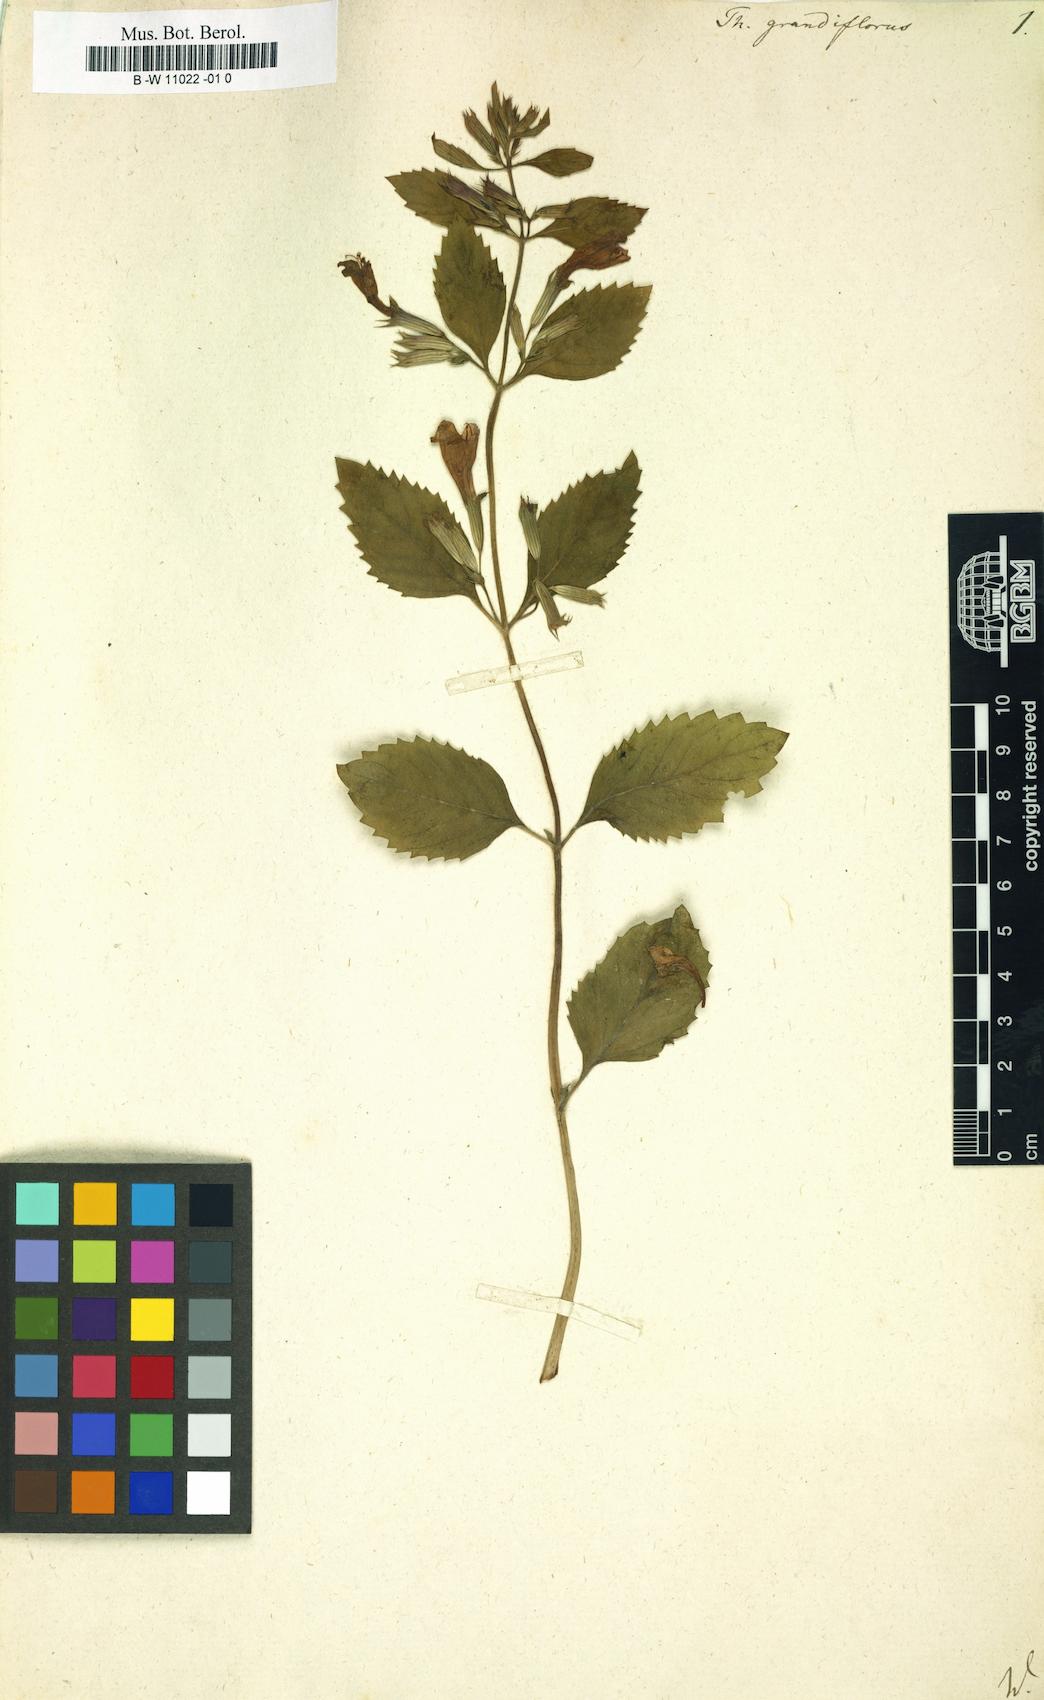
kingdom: Plantae
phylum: Tracheophyta
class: Magnoliopsida
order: Lamiales
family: Lamiaceae
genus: Thymus
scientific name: Thymus grandiflorus
